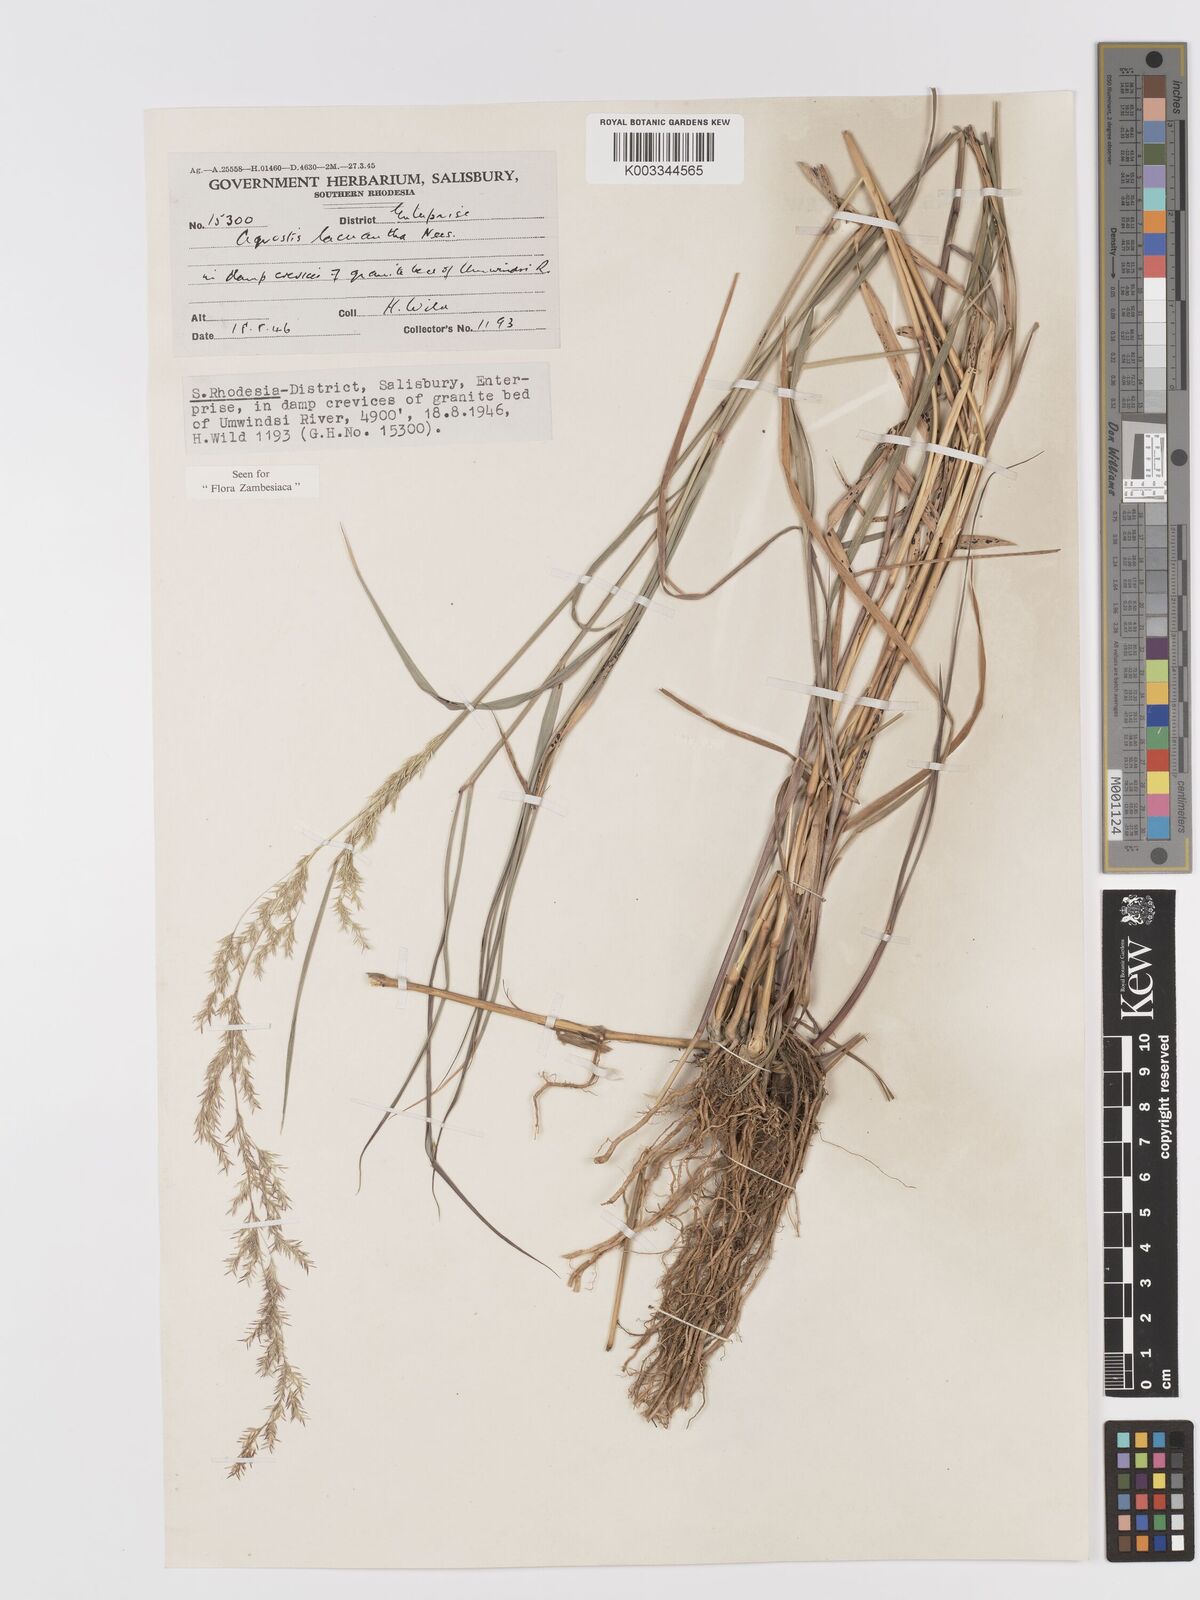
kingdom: Plantae
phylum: Tracheophyta
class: Liliopsida
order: Poales
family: Poaceae
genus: Lachnagrostis
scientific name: Lachnagrostis lachnantha
